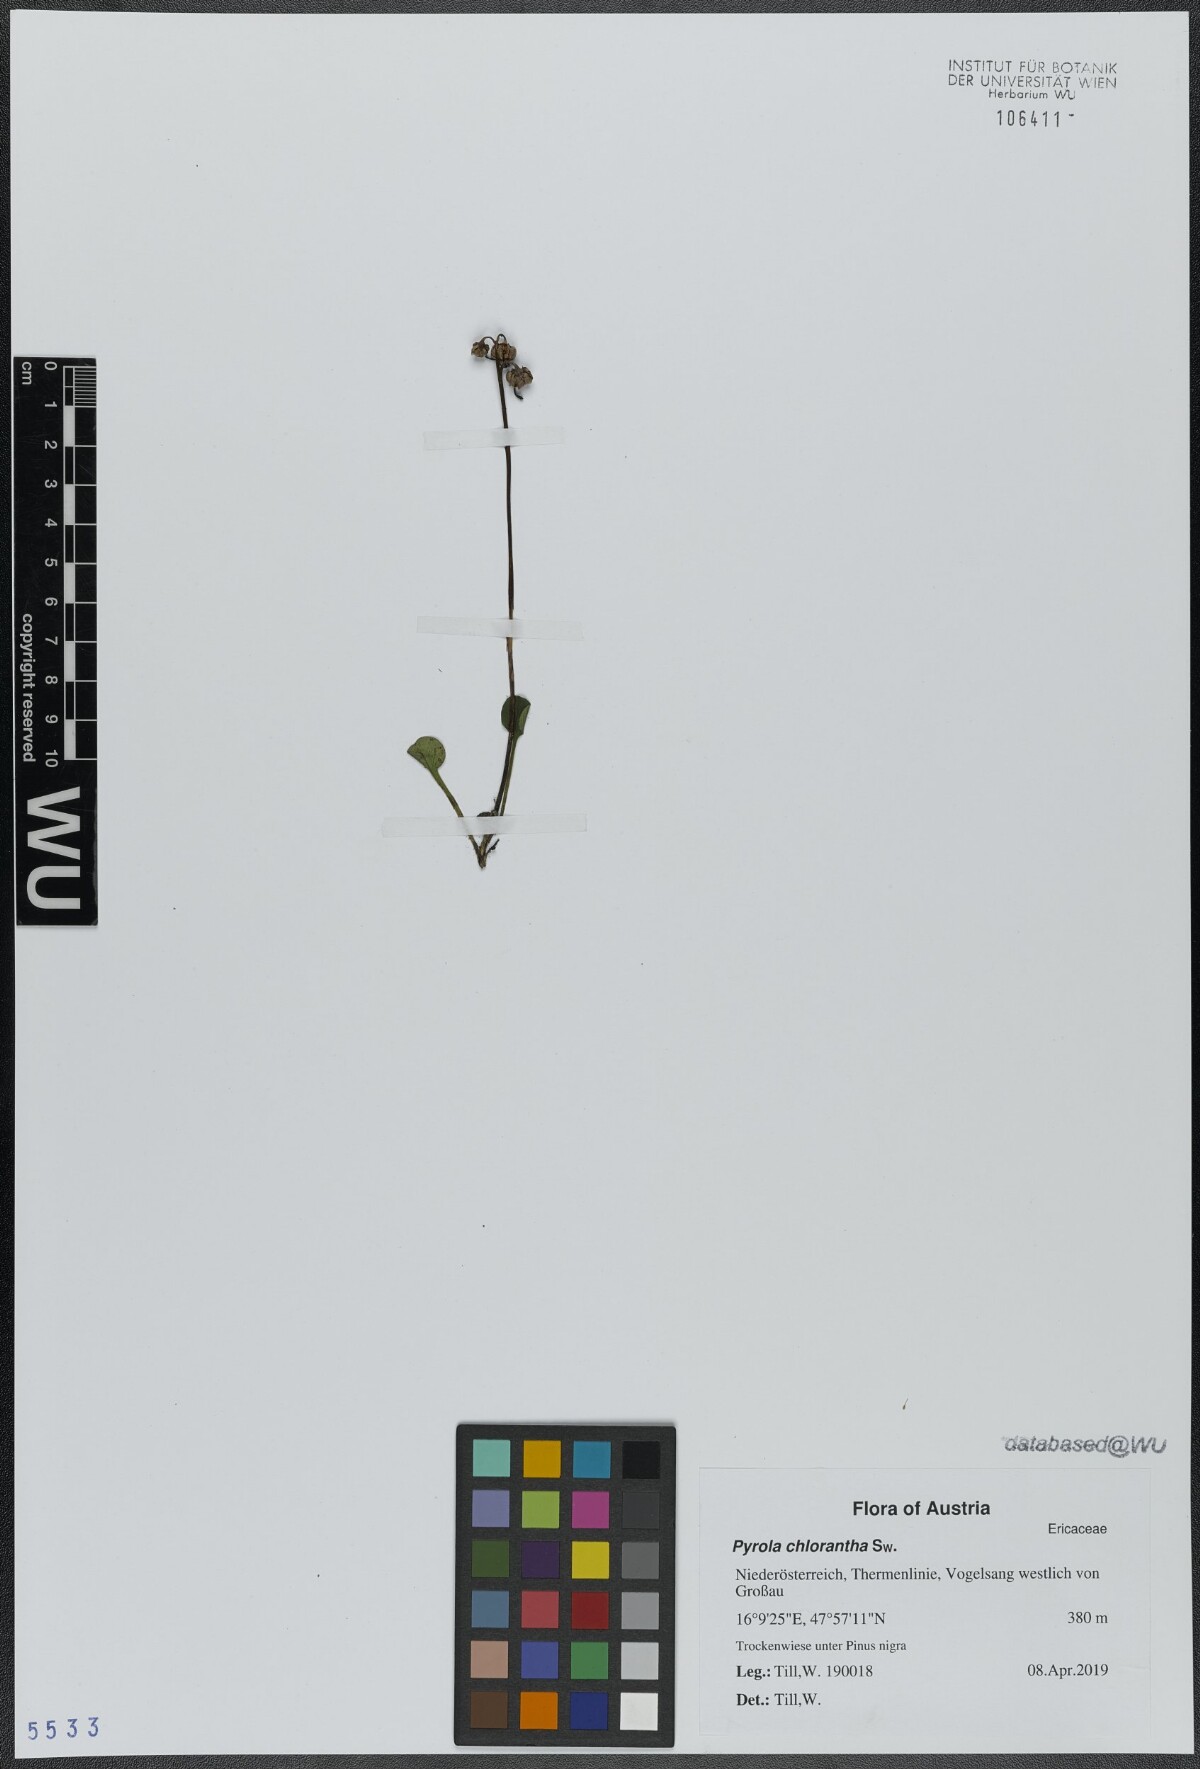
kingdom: Plantae
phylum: Tracheophyta
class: Magnoliopsida
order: Ericales
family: Ericaceae
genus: Pyrola
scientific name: Pyrola chlorantha
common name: Green wintergreen
